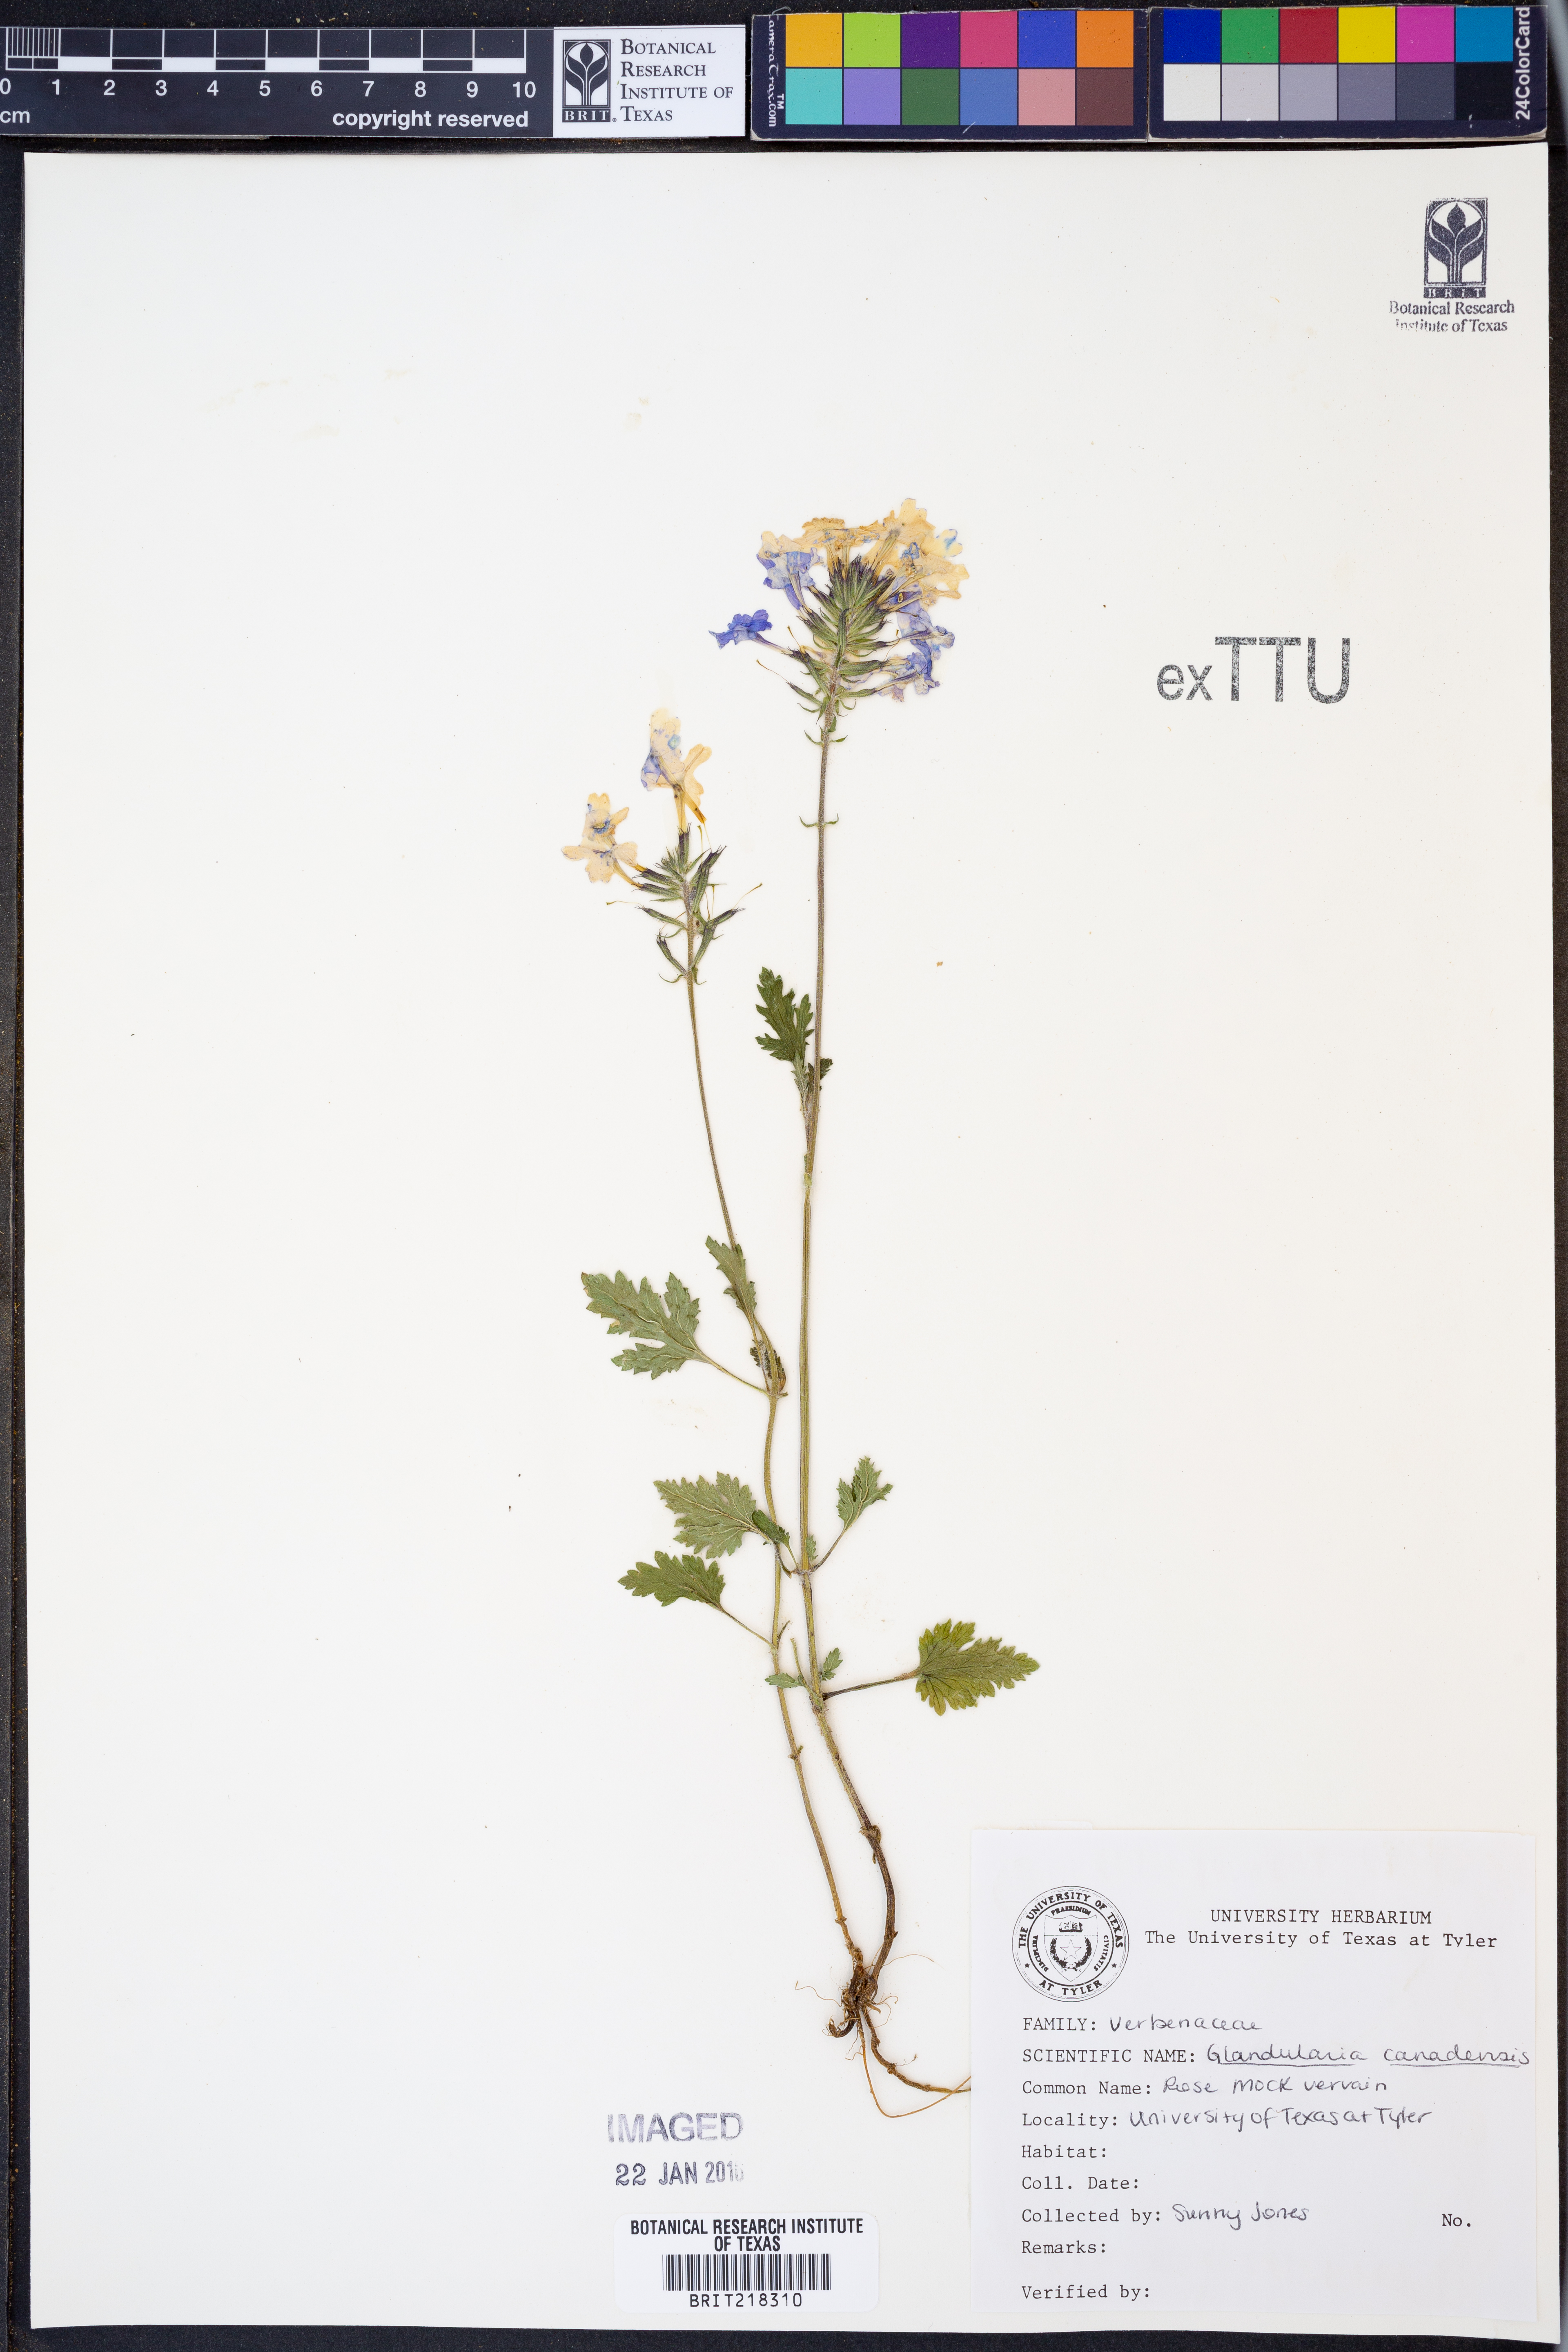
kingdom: Plantae
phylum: Tracheophyta
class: Magnoliopsida
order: Lamiales
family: Verbenaceae
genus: Verbena
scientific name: Verbena canadensis
